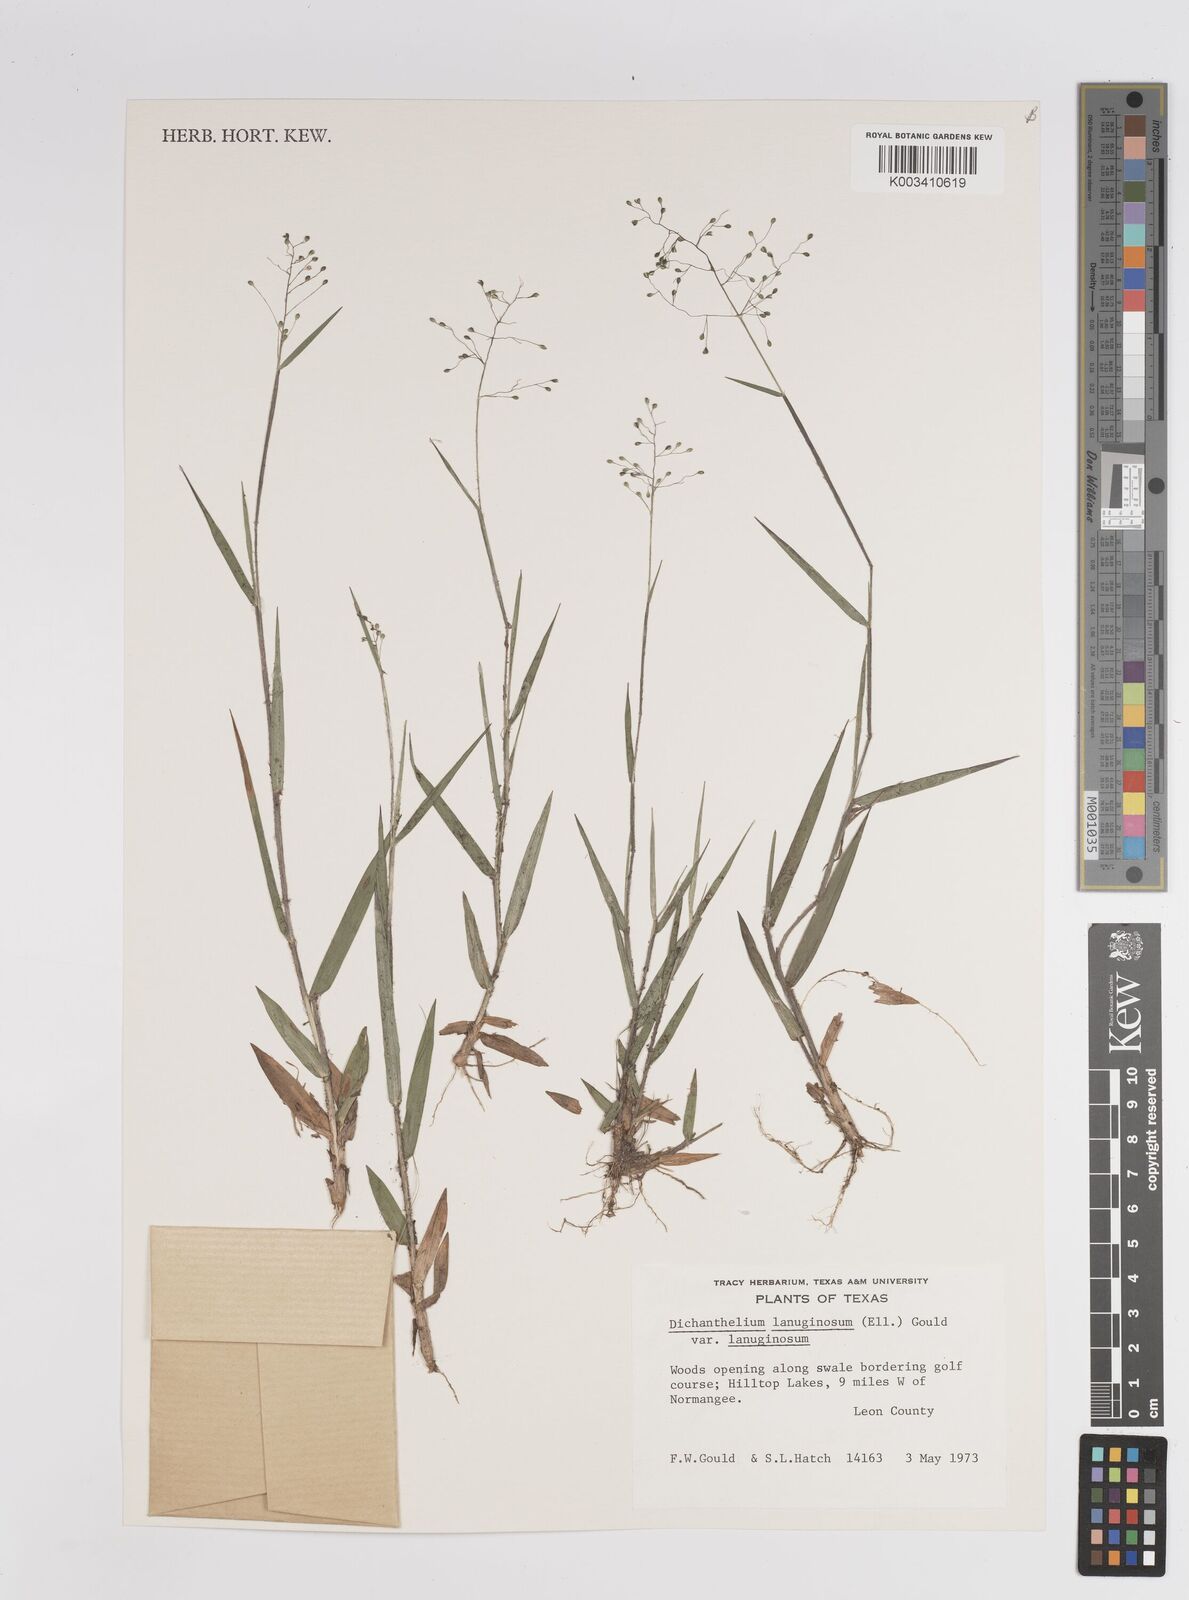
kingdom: Plantae
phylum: Tracheophyta
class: Liliopsida
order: Poales
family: Poaceae
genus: Dichanthelium
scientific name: Dichanthelium lanuginosum
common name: Woolly panicgrass
